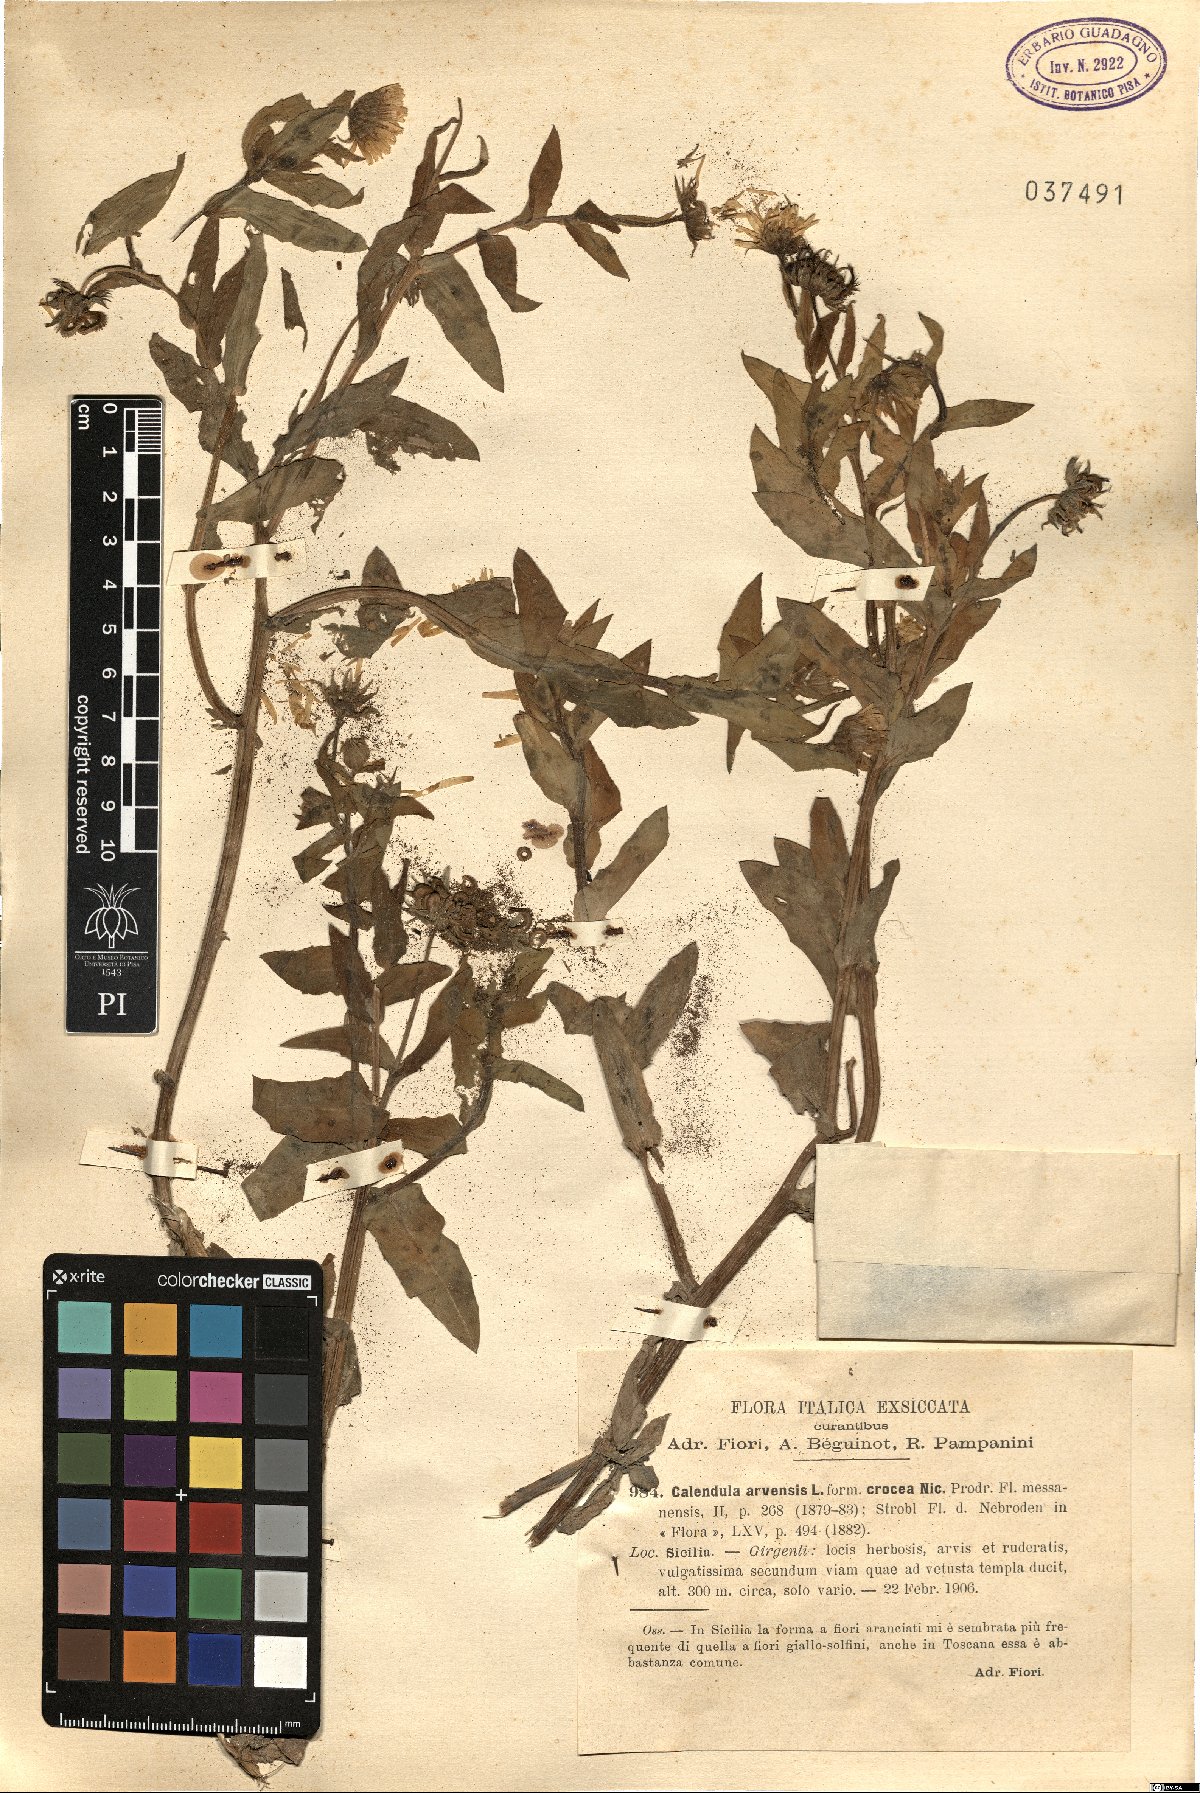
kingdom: Plantae
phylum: Tracheophyta
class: Magnoliopsida
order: Asterales
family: Asteraceae
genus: Calendula
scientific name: Calendula arvensis
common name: Field marigold
